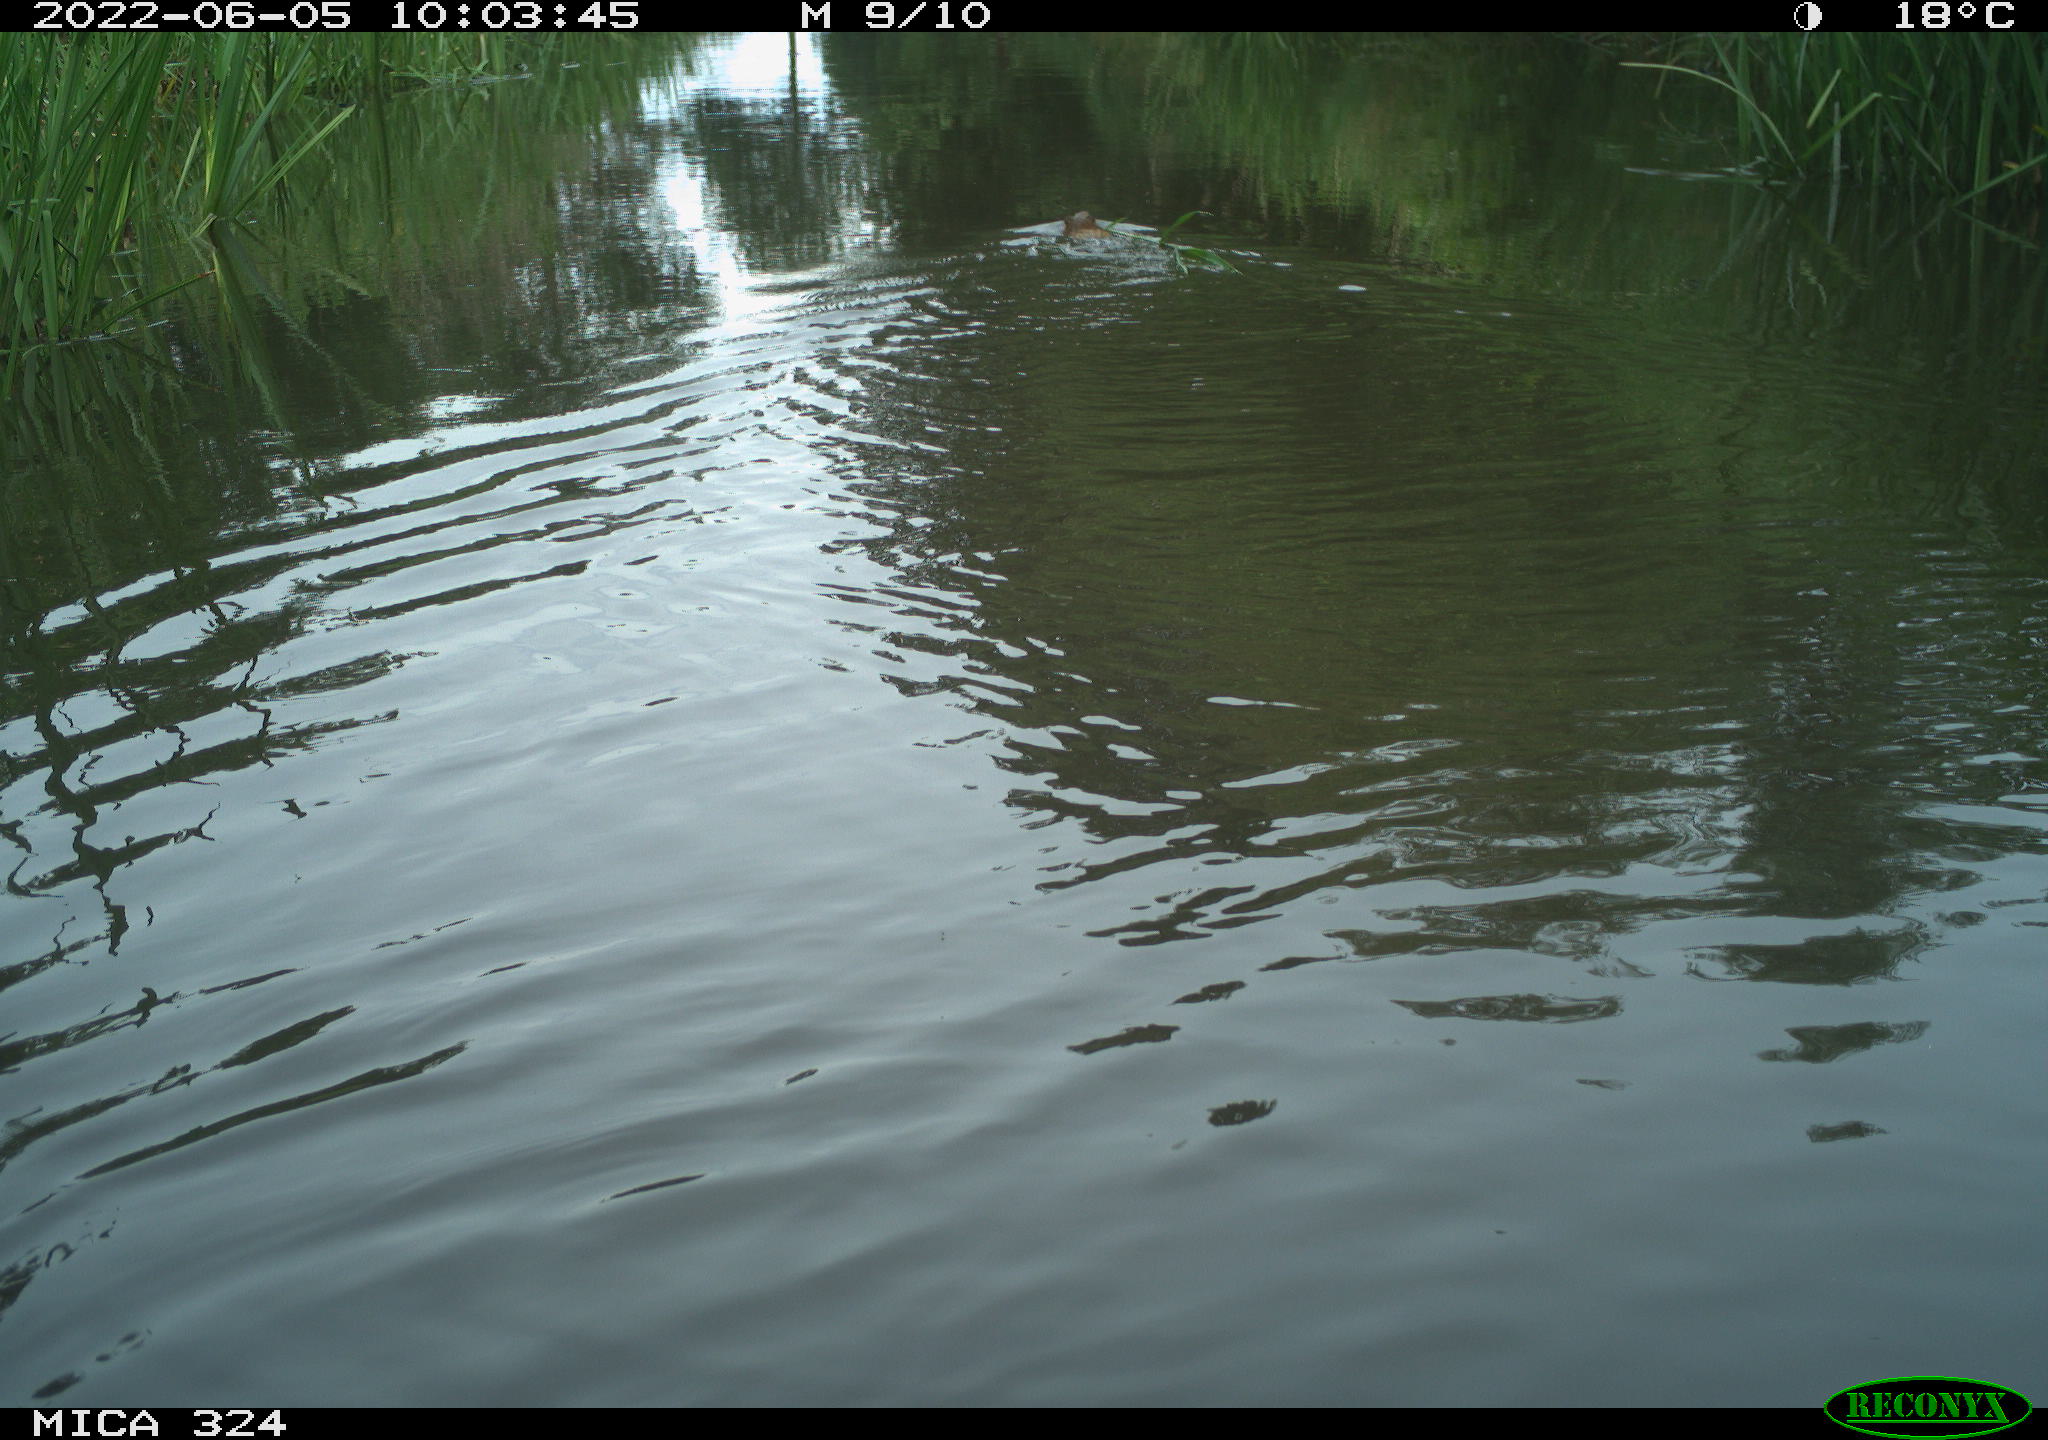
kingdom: Animalia
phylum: Chordata
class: Mammalia
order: Rodentia
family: Cricetidae
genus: Ondatra
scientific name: Ondatra zibethicus
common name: Muskrat
